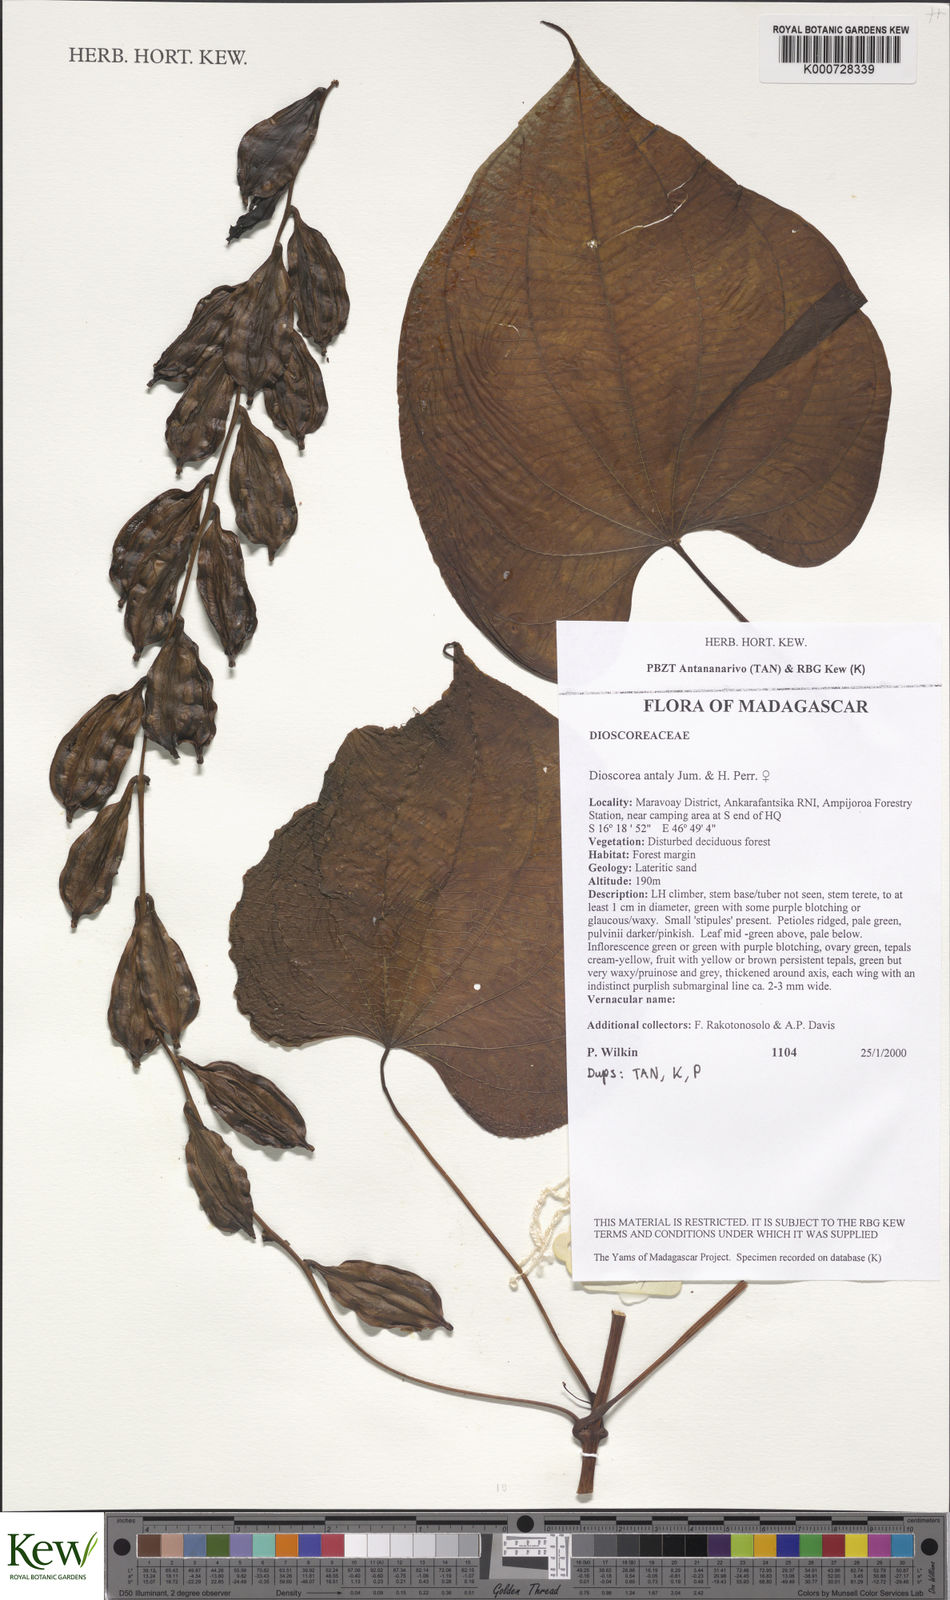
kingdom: Plantae
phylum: Tracheophyta
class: Liliopsida
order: Dioscoreales
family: Dioscoreaceae
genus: Dioscorea
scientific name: Dioscorea antaly
